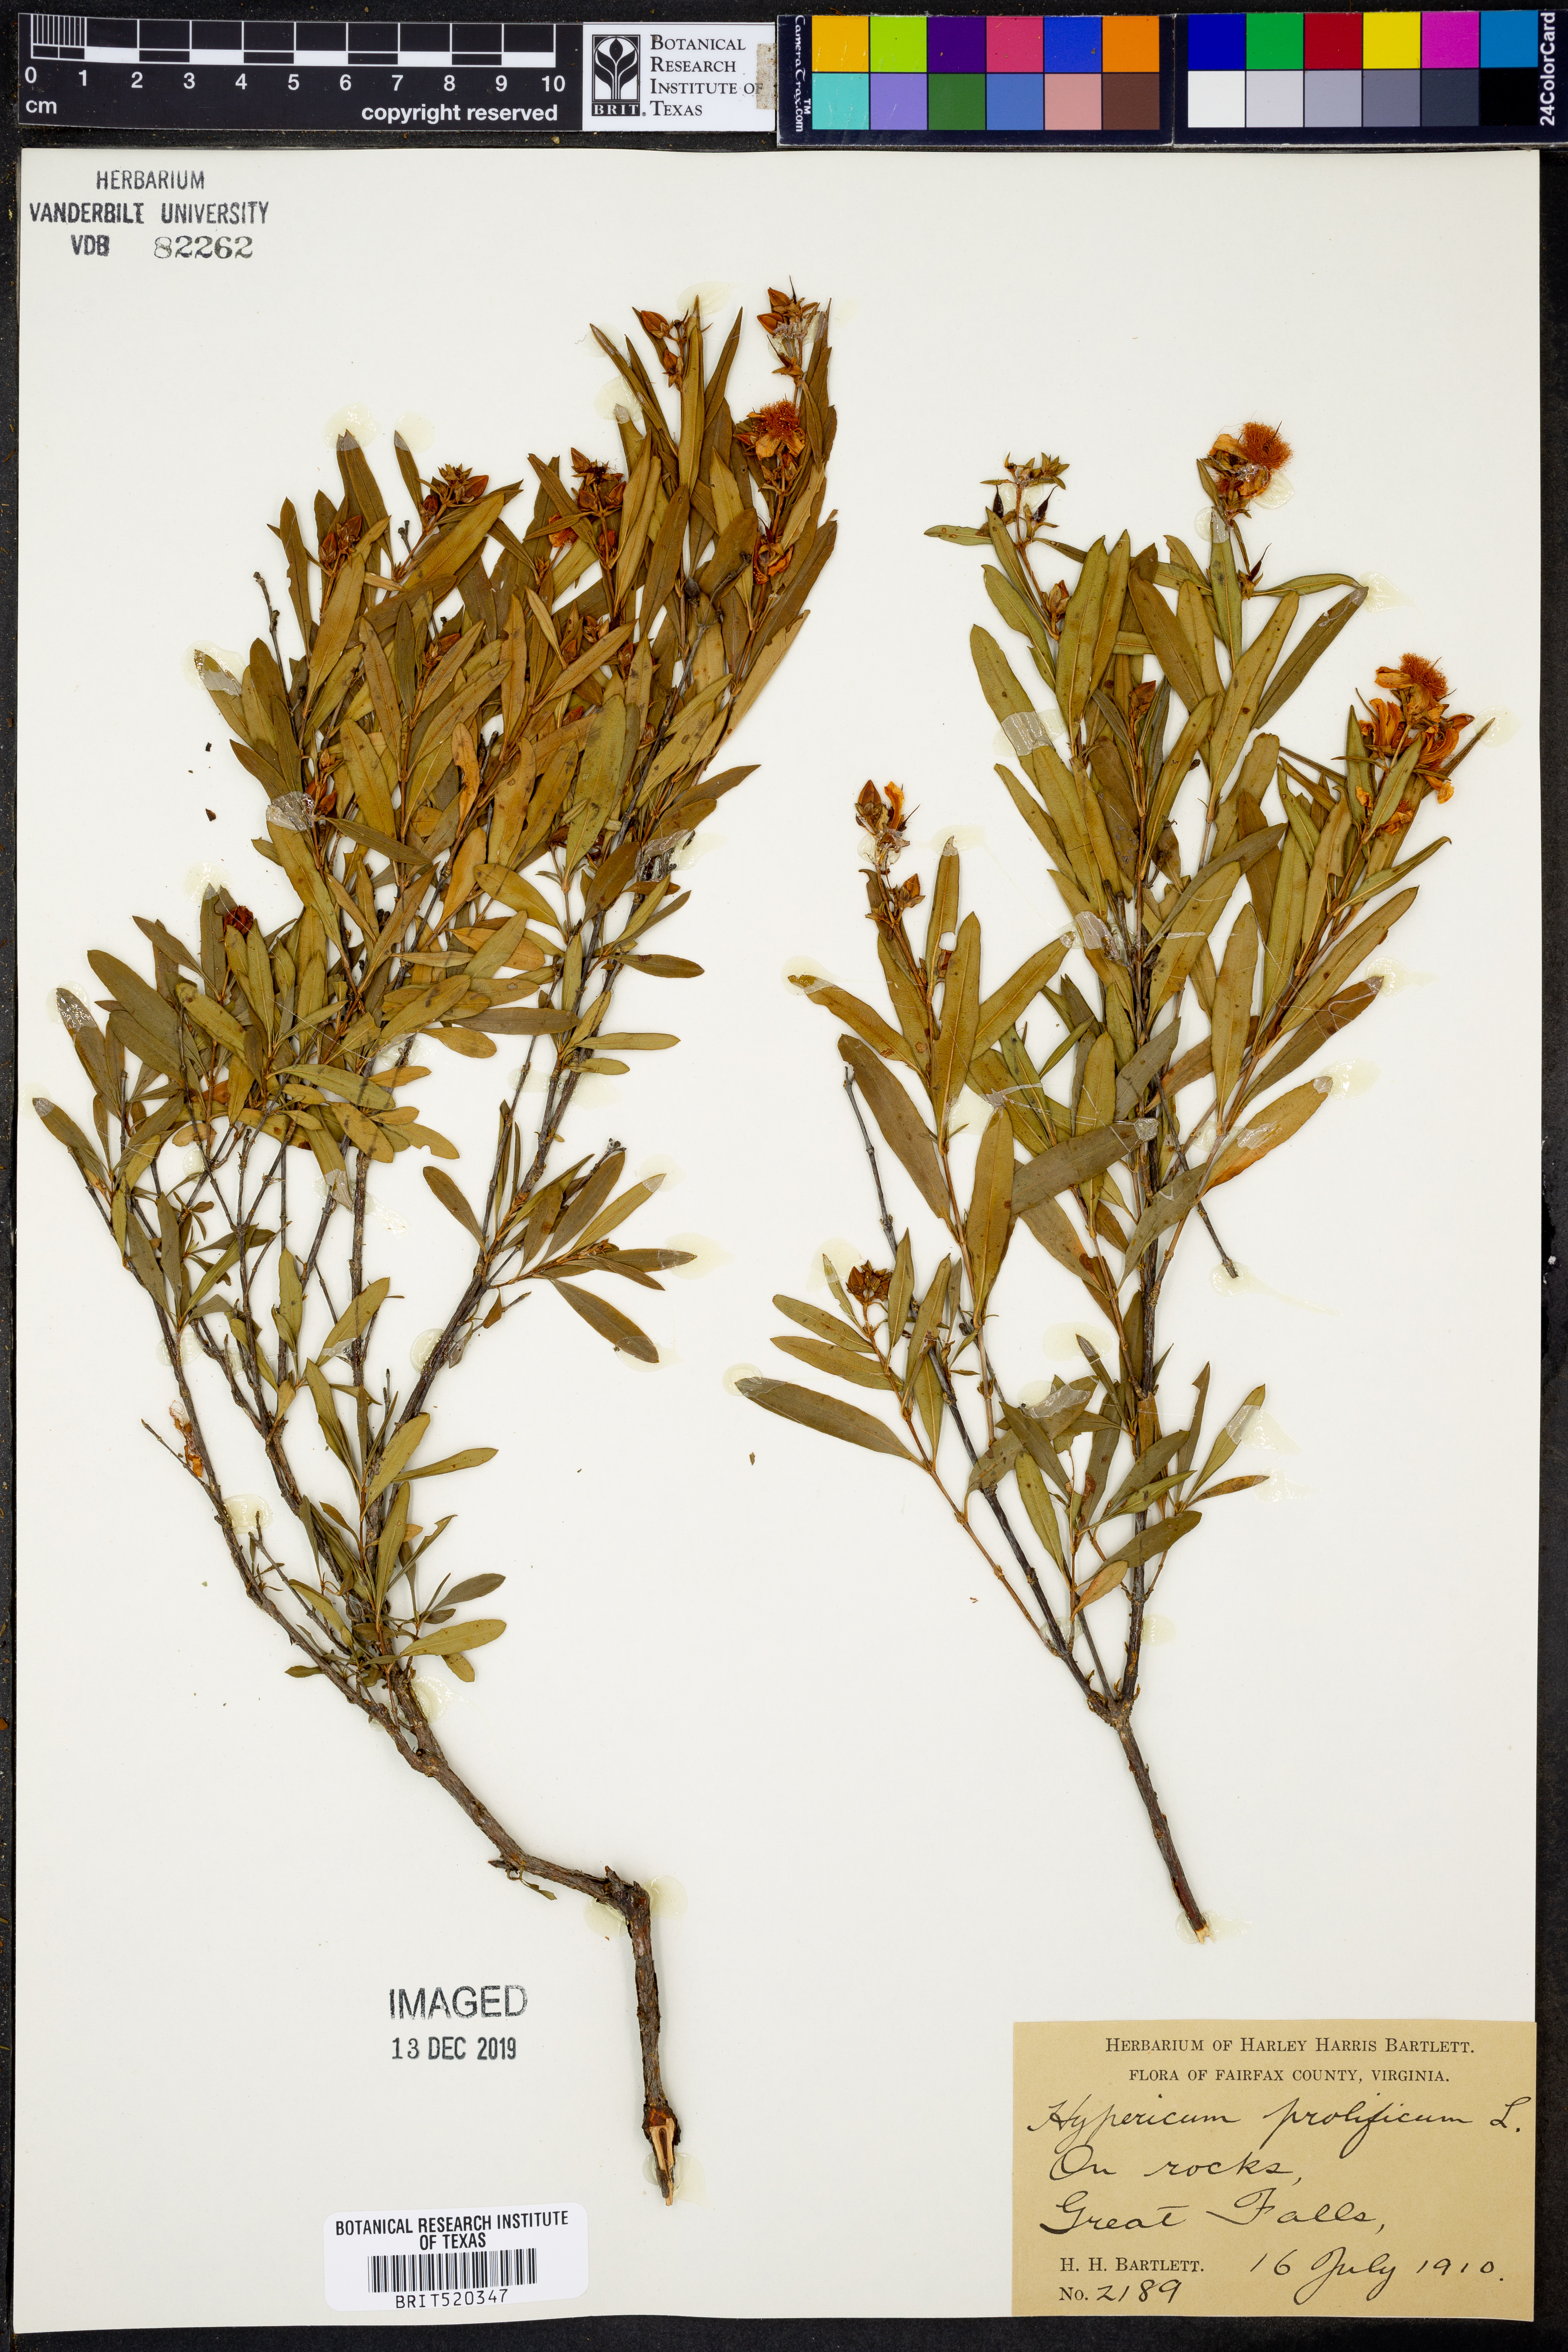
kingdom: Plantae
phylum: Tracheophyta
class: Magnoliopsida
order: Malpighiales
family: Hypericaceae
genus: Hypericum
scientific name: Hypericum prolificum
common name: Shrubby st. john's-wort
